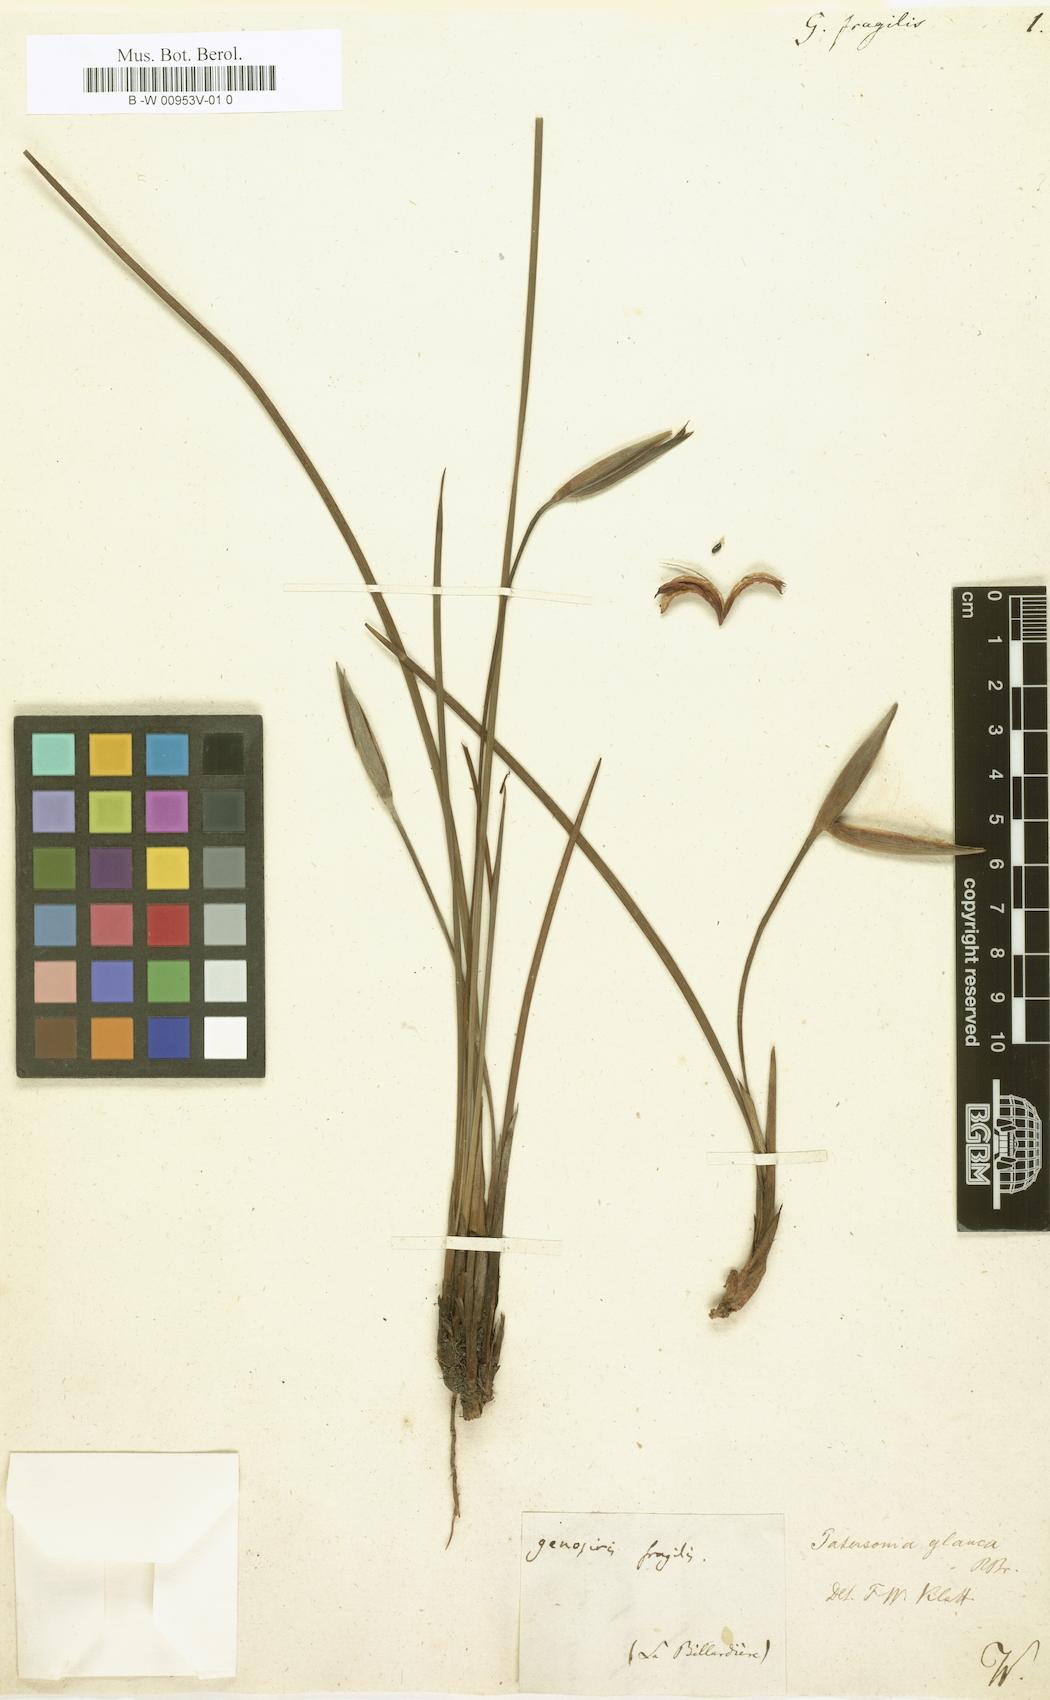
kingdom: Plantae
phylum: Tracheophyta
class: Liliopsida
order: Asparagales
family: Iridaceae
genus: Patersonia
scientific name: Patersonia fragilis
